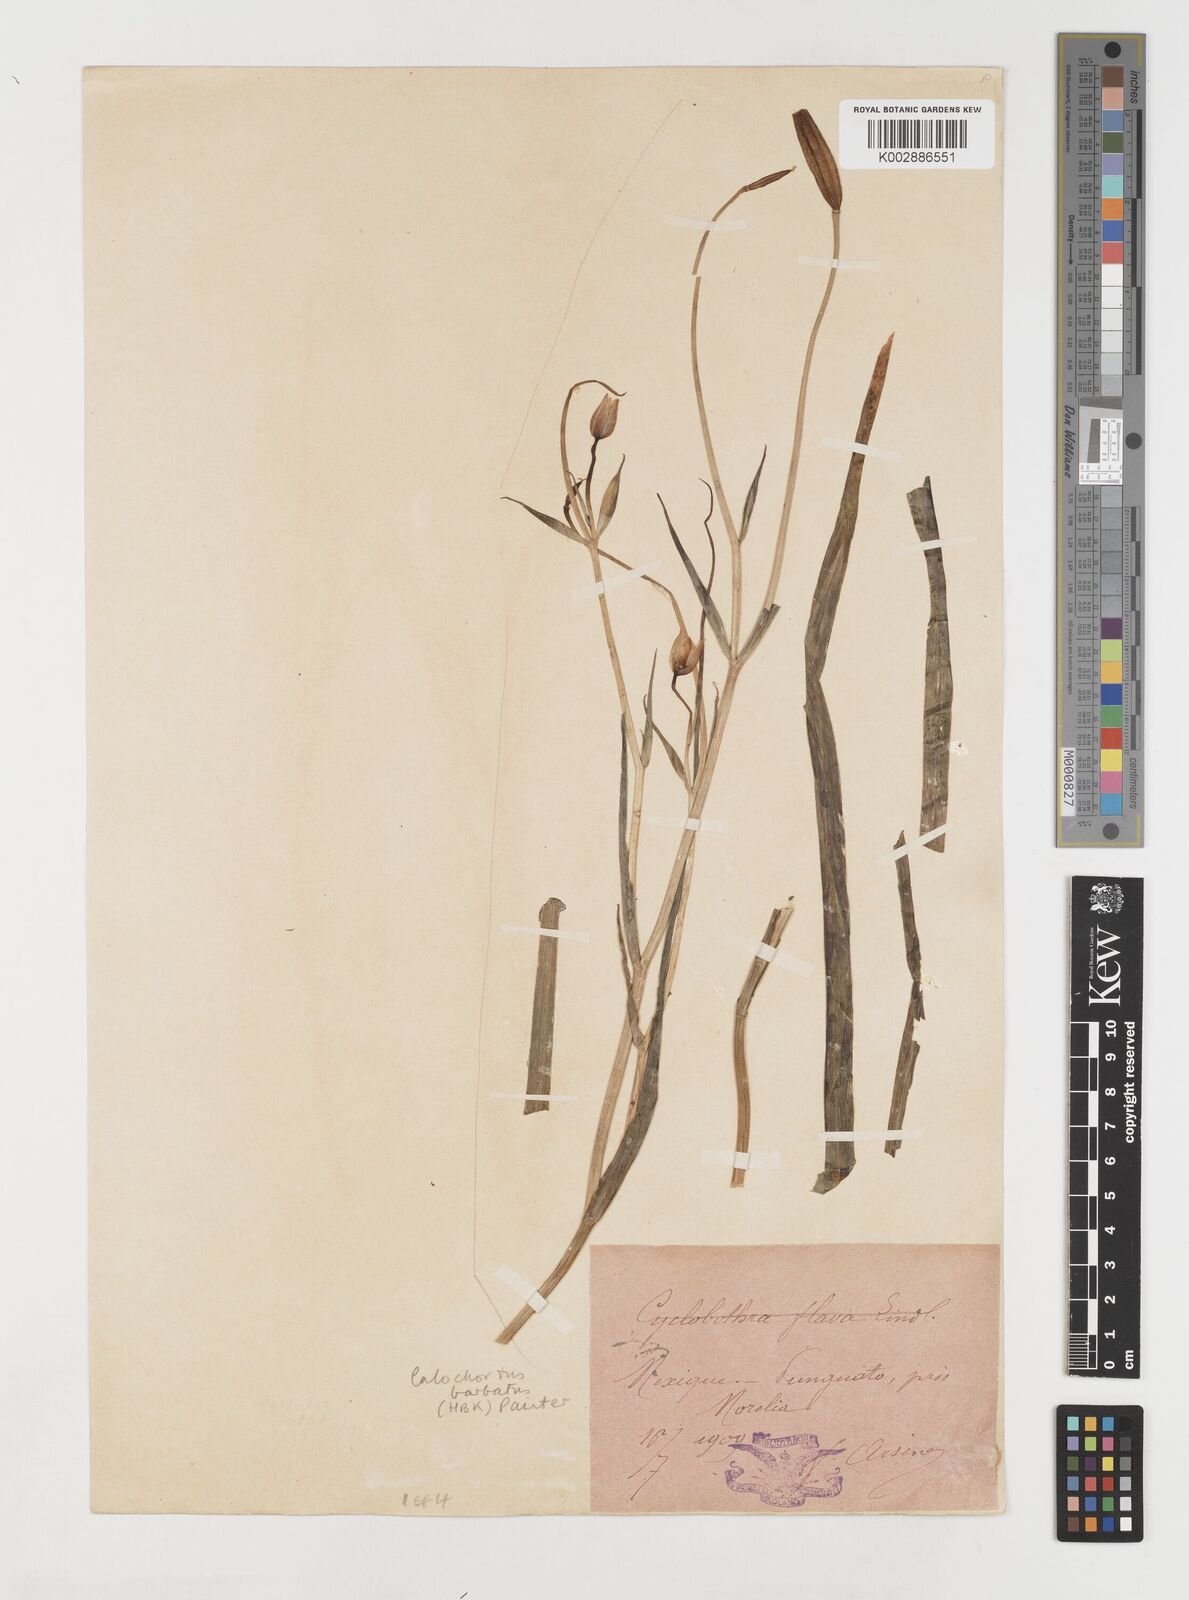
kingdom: Plantae
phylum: Tracheophyta
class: Liliopsida
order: Liliales
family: Liliaceae
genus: Calochortus
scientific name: Calochortus barbatus
